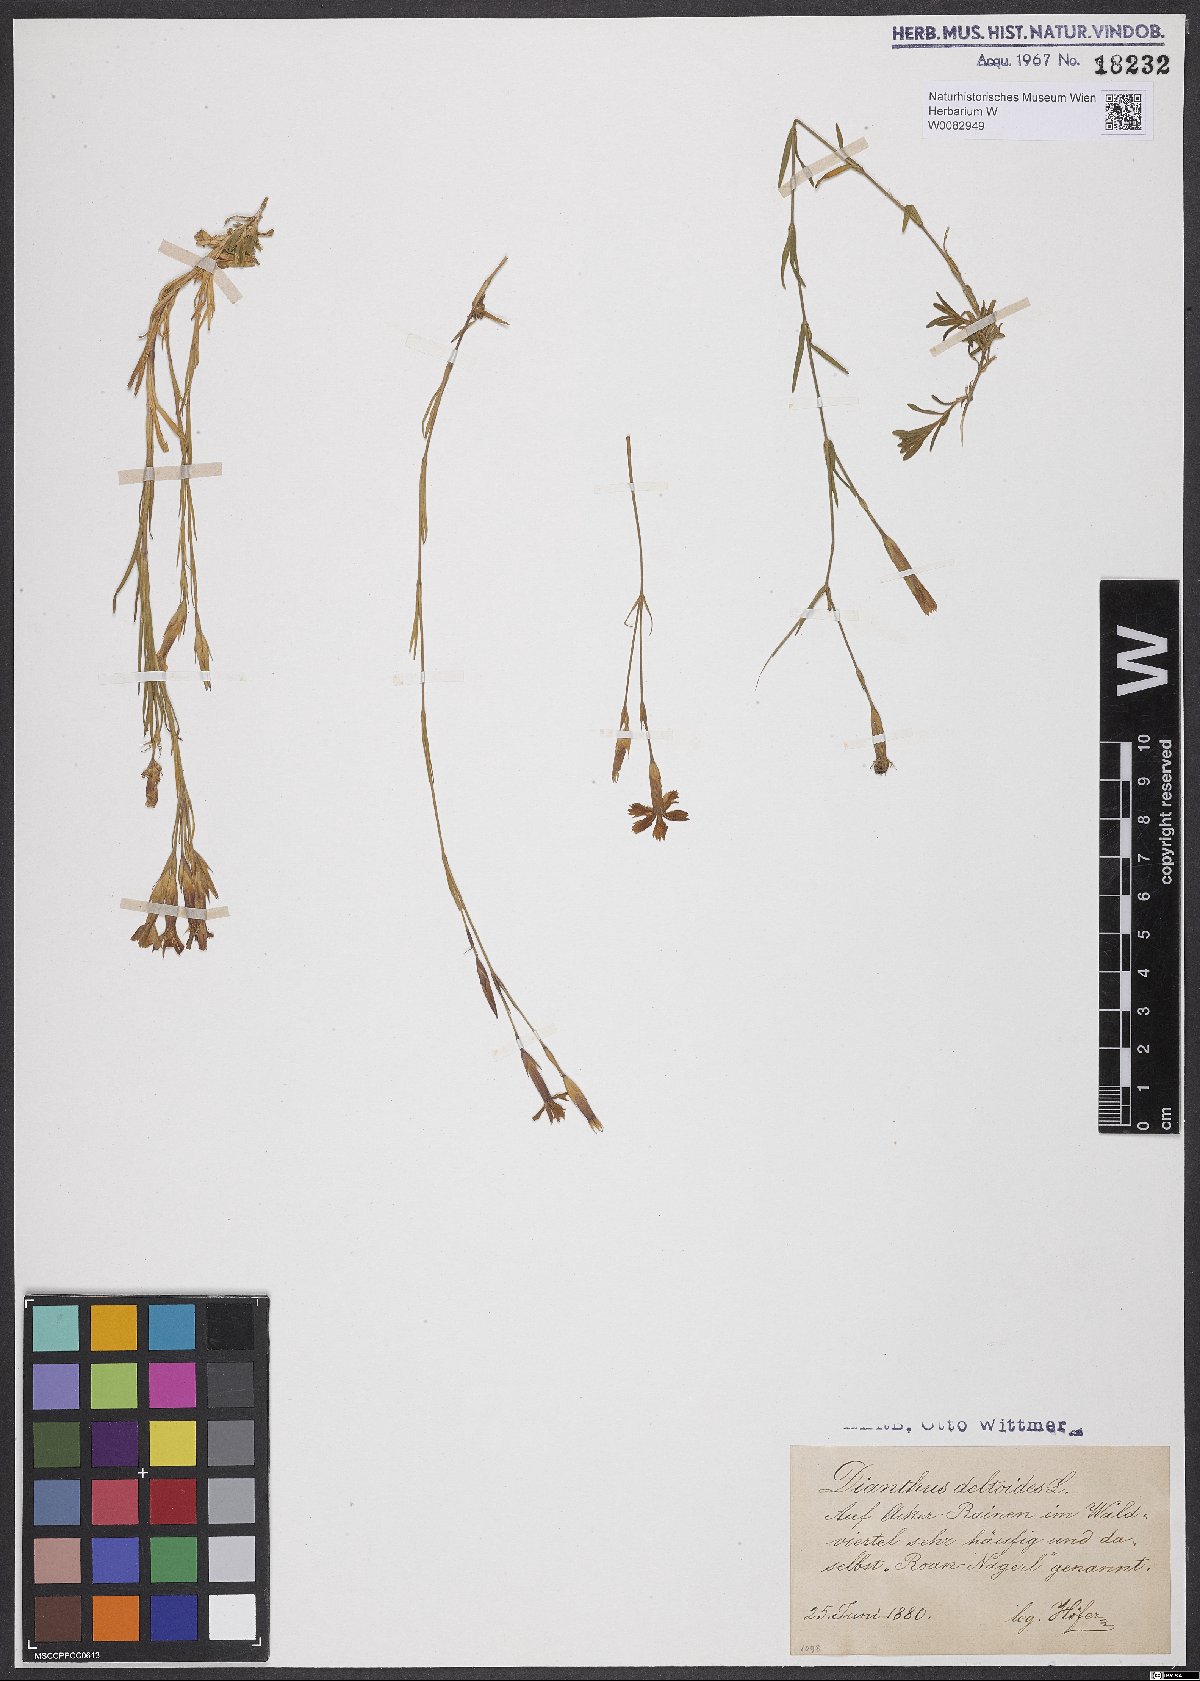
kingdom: Plantae
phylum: Tracheophyta
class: Magnoliopsida
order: Caryophyllales
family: Caryophyllaceae
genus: Dianthus
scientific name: Dianthus deltoides
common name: Maiden pink
